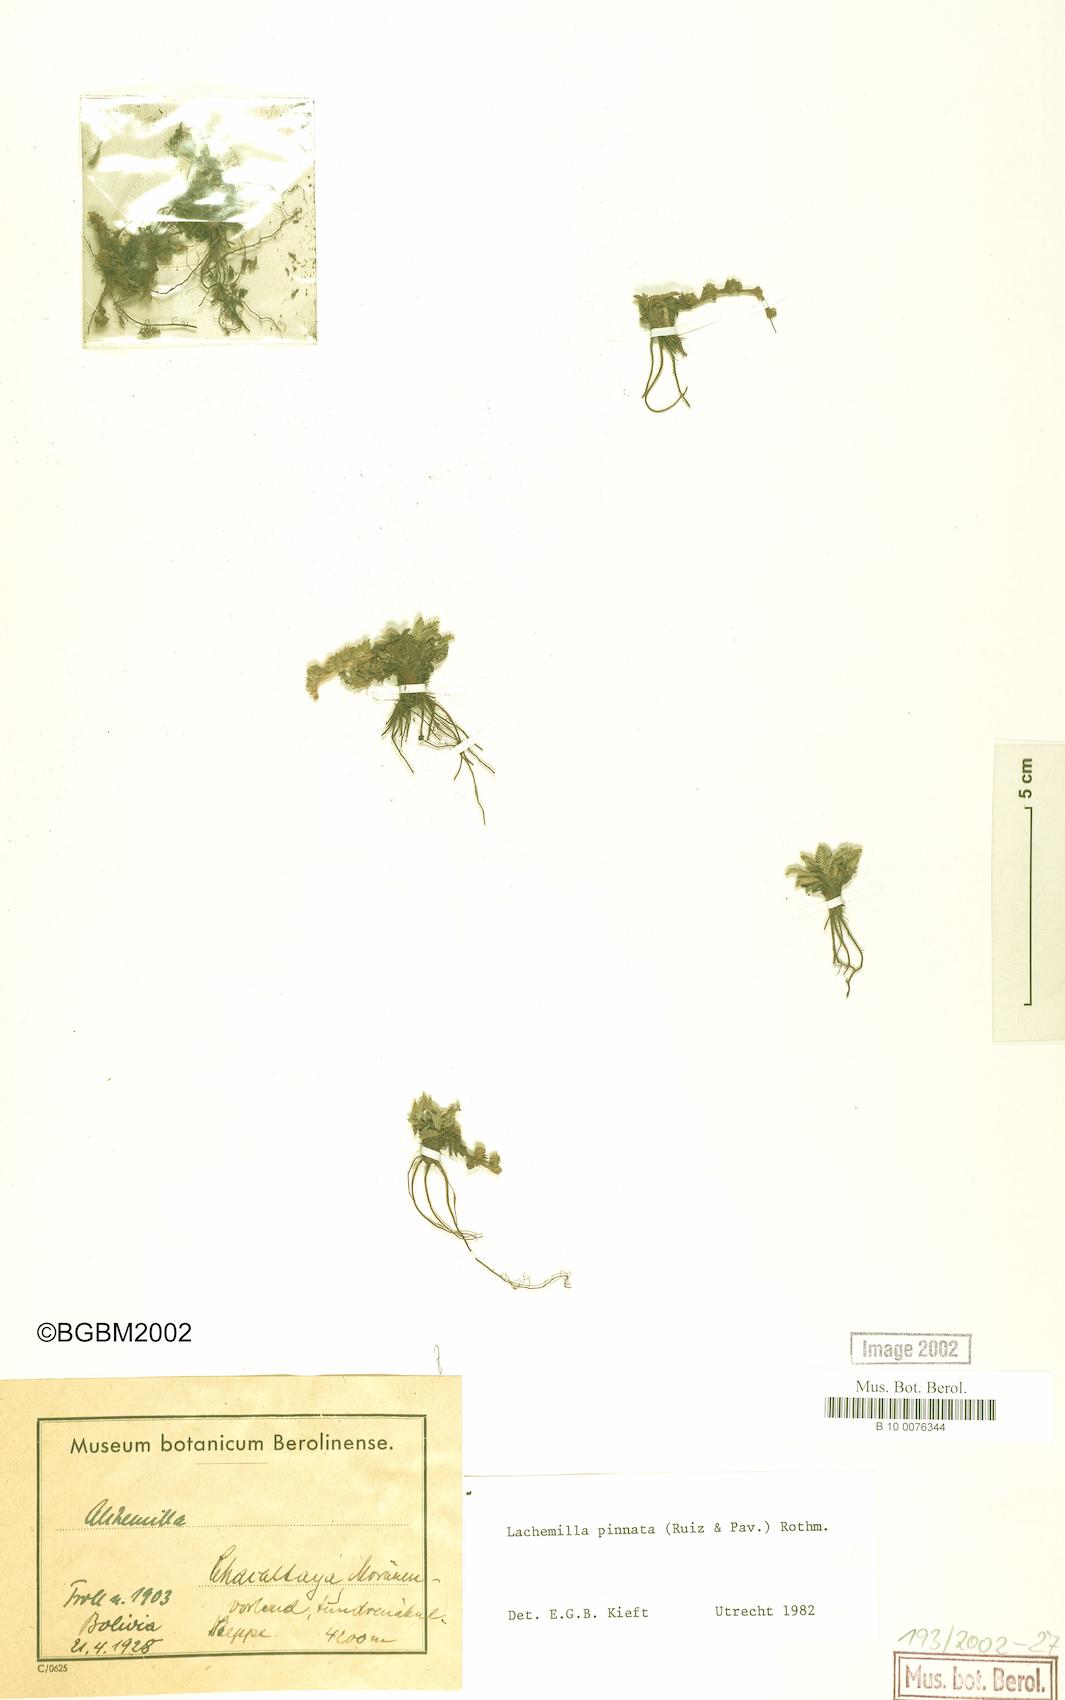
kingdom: Plantae
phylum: Tracheophyta
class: Magnoliopsida
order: Rosales
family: Rosaceae
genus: Lachemilla
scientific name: Lachemilla pinnata
